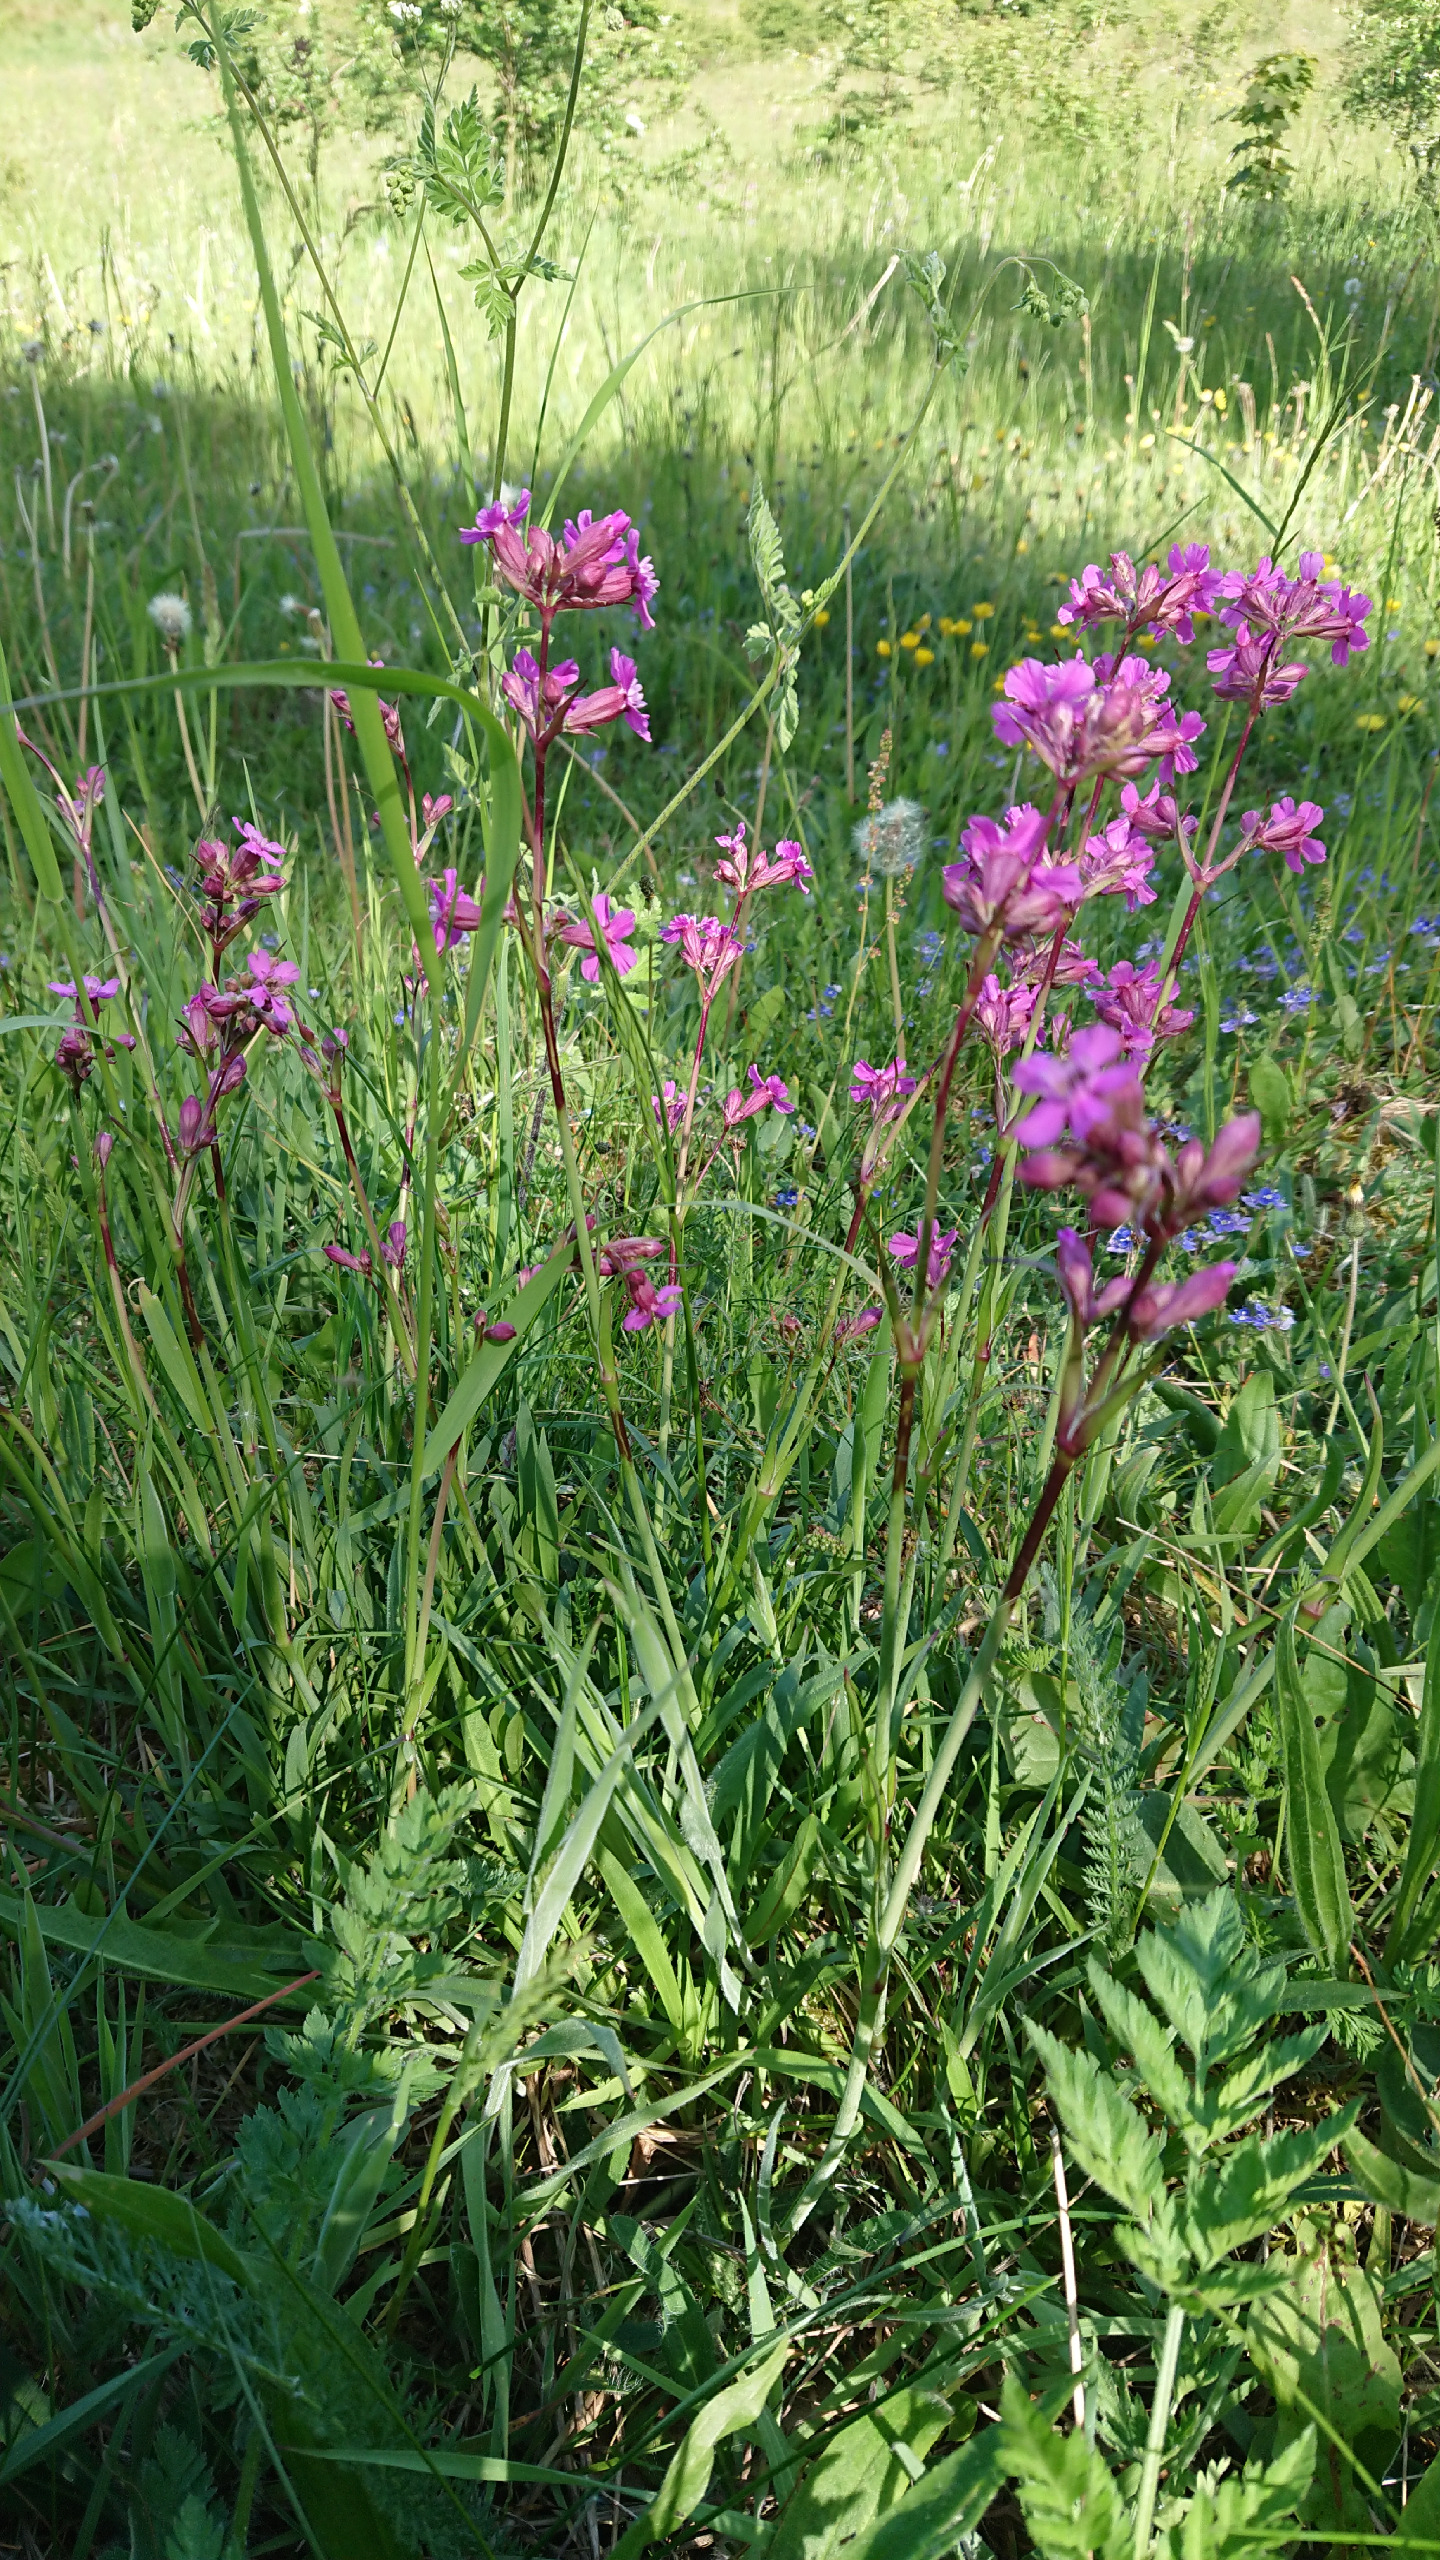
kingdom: Plantae
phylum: Tracheophyta
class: Magnoliopsida
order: Caryophyllales
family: Caryophyllaceae
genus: Viscaria
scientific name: Viscaria vulgaris
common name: Tjærenellike
